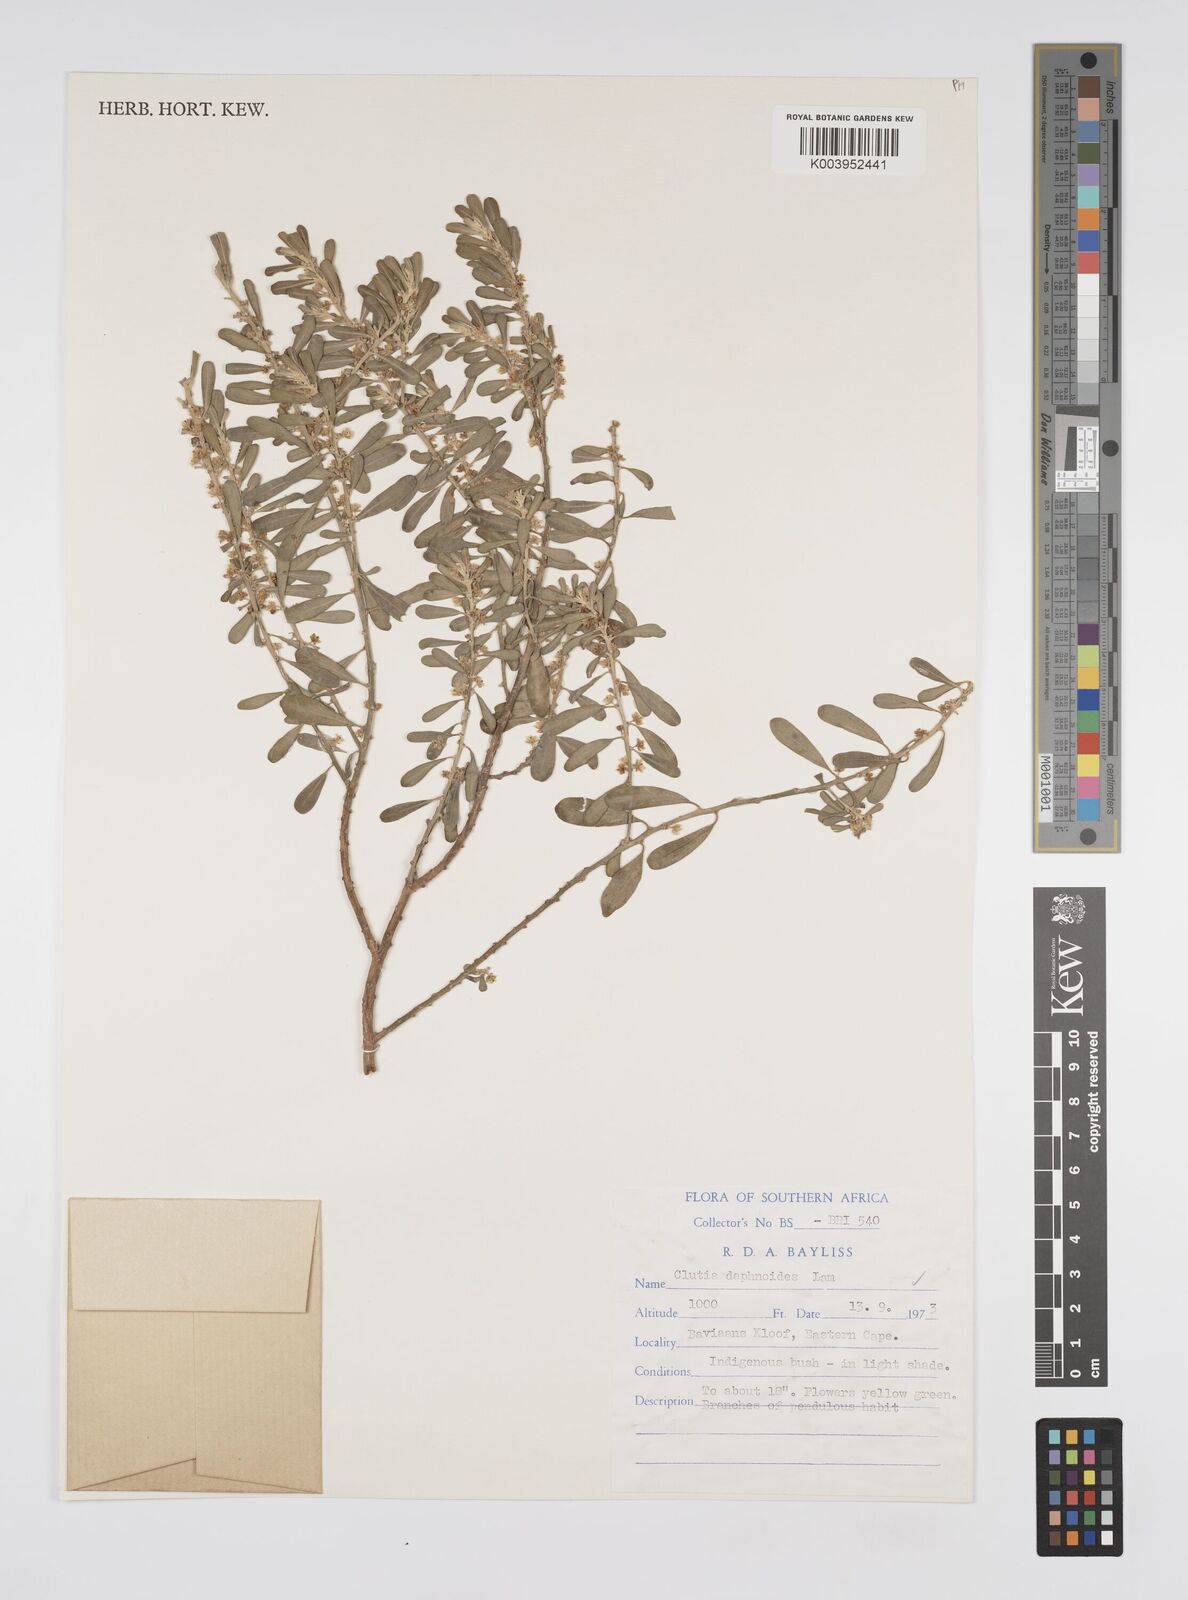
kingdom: Plantae
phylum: Tracheophyta
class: Magnoliopsida
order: Malpighiales
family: Peraceae
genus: Clutia
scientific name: Clutia daphnoides
